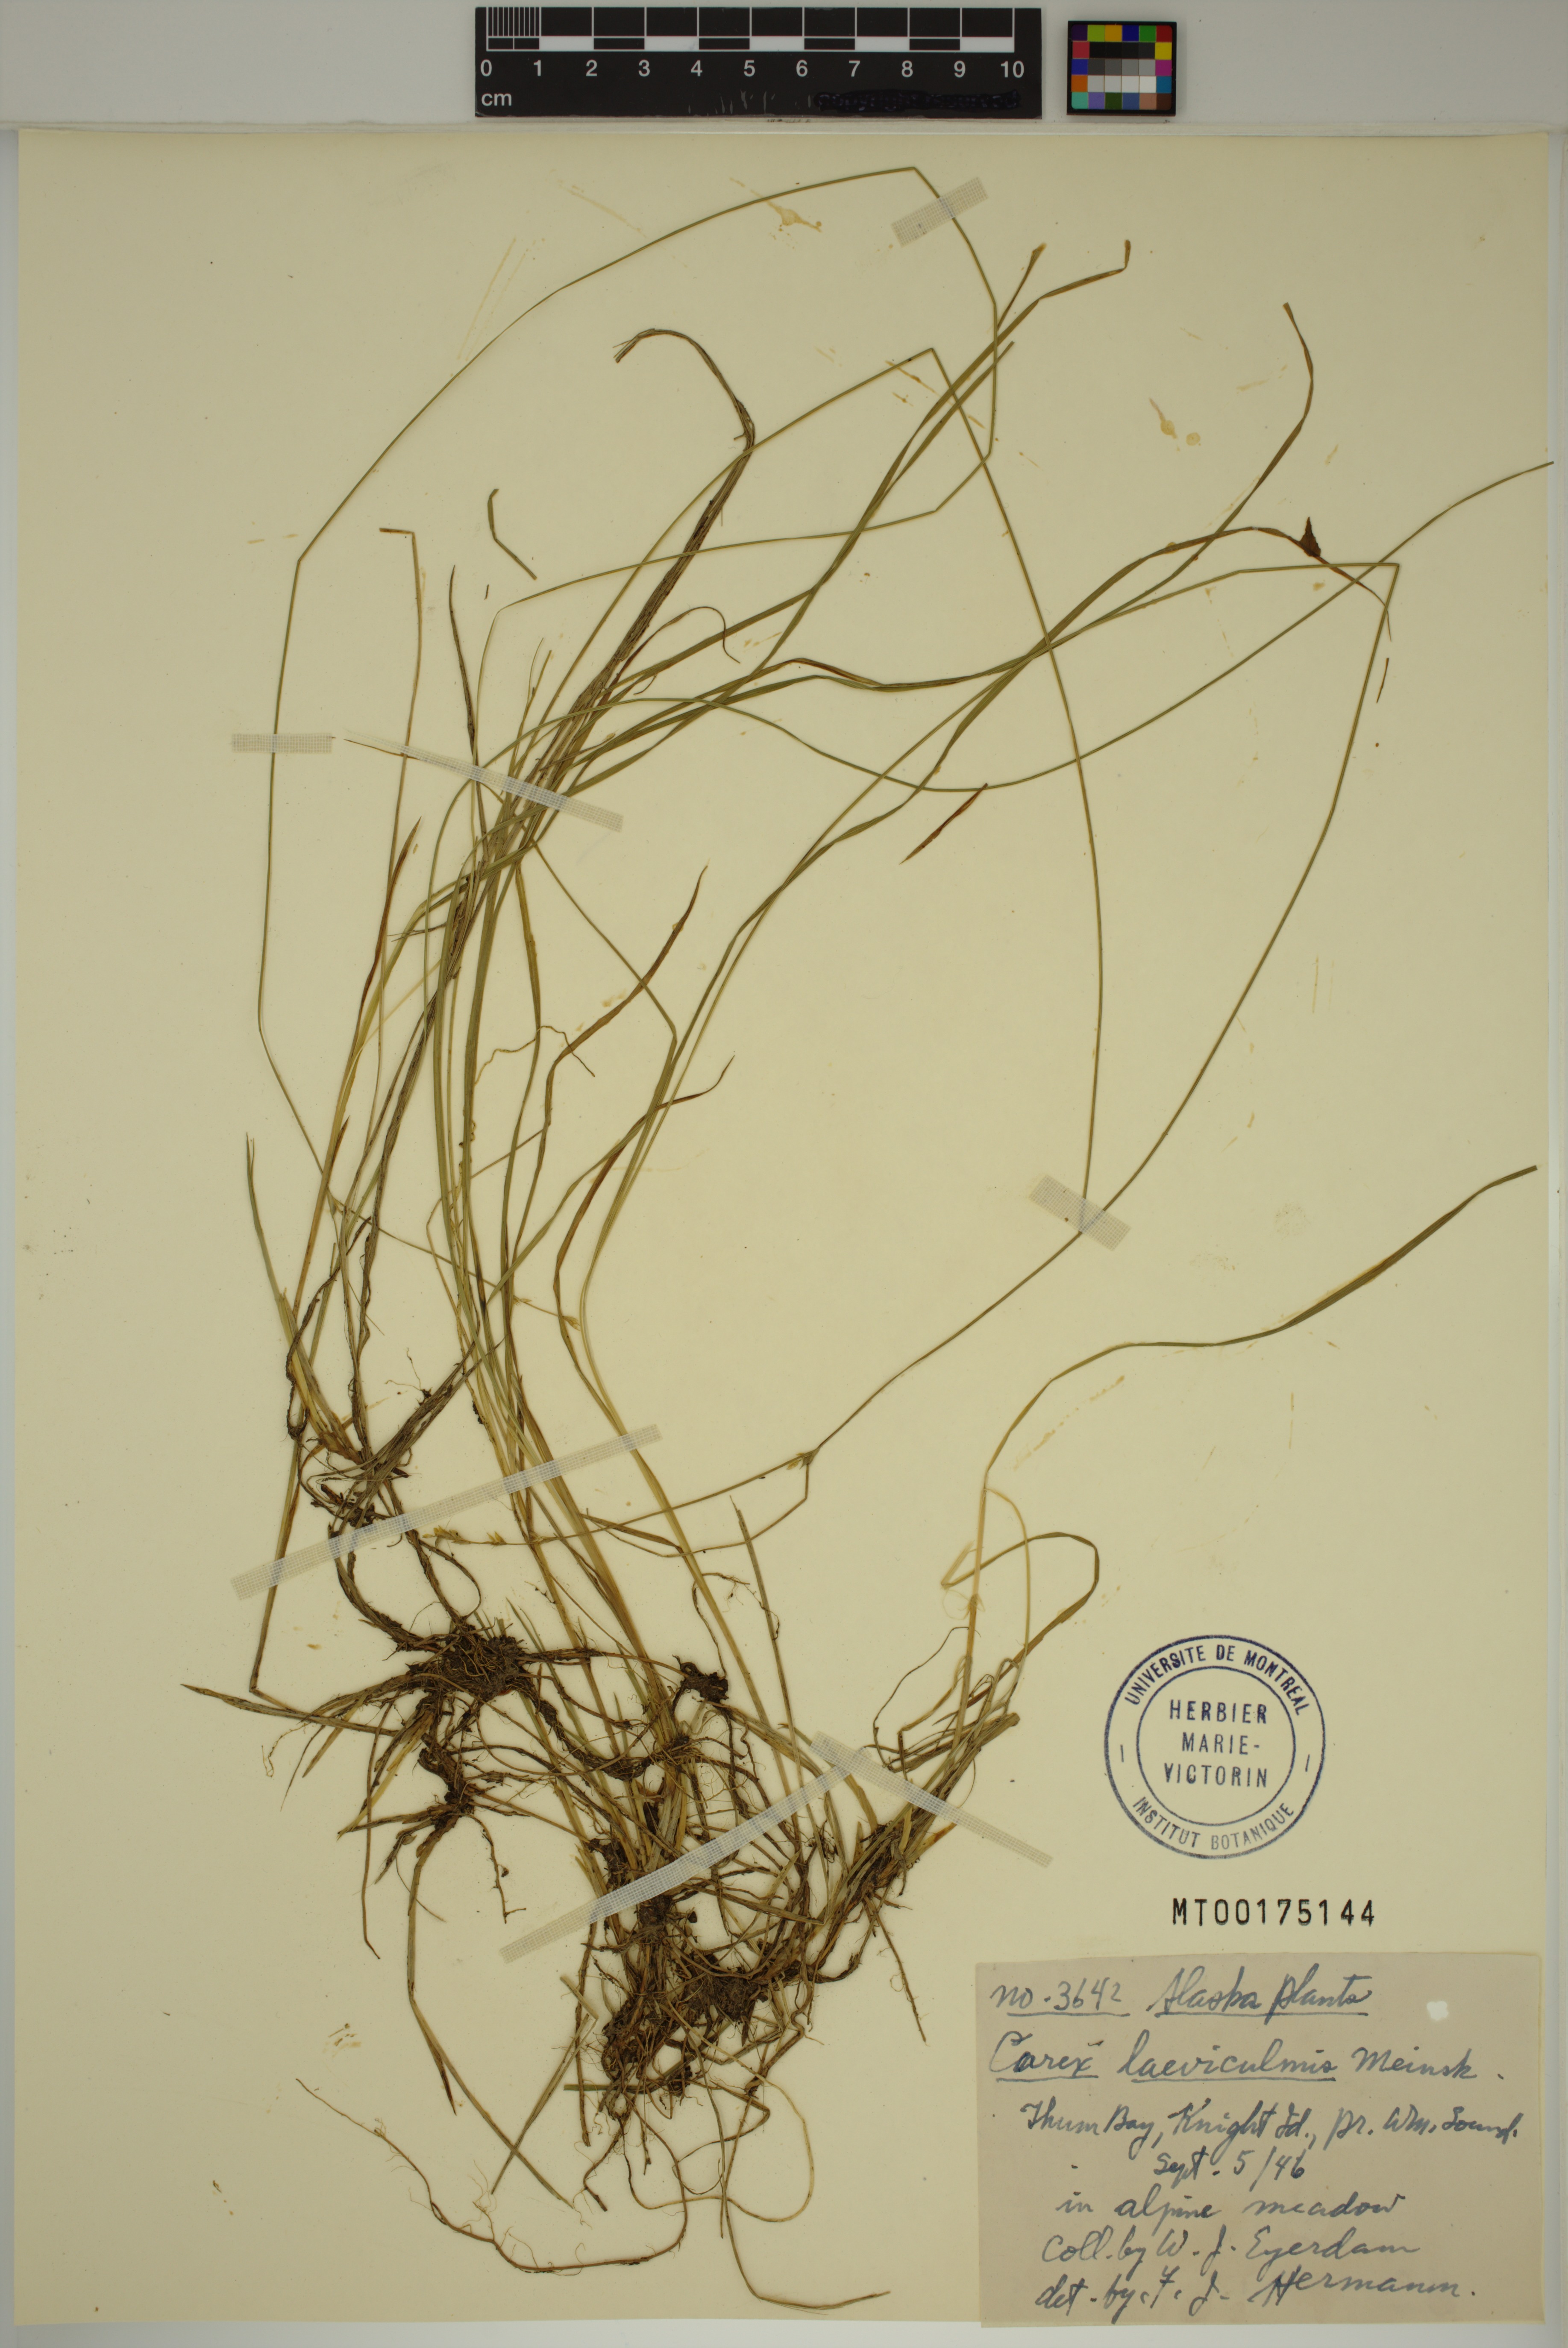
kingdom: Plantae
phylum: Tracheophyta
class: Liliopsida
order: Poales
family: Cyperaceae
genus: Carex
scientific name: Carex laeviculmis
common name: Smooth sedge
